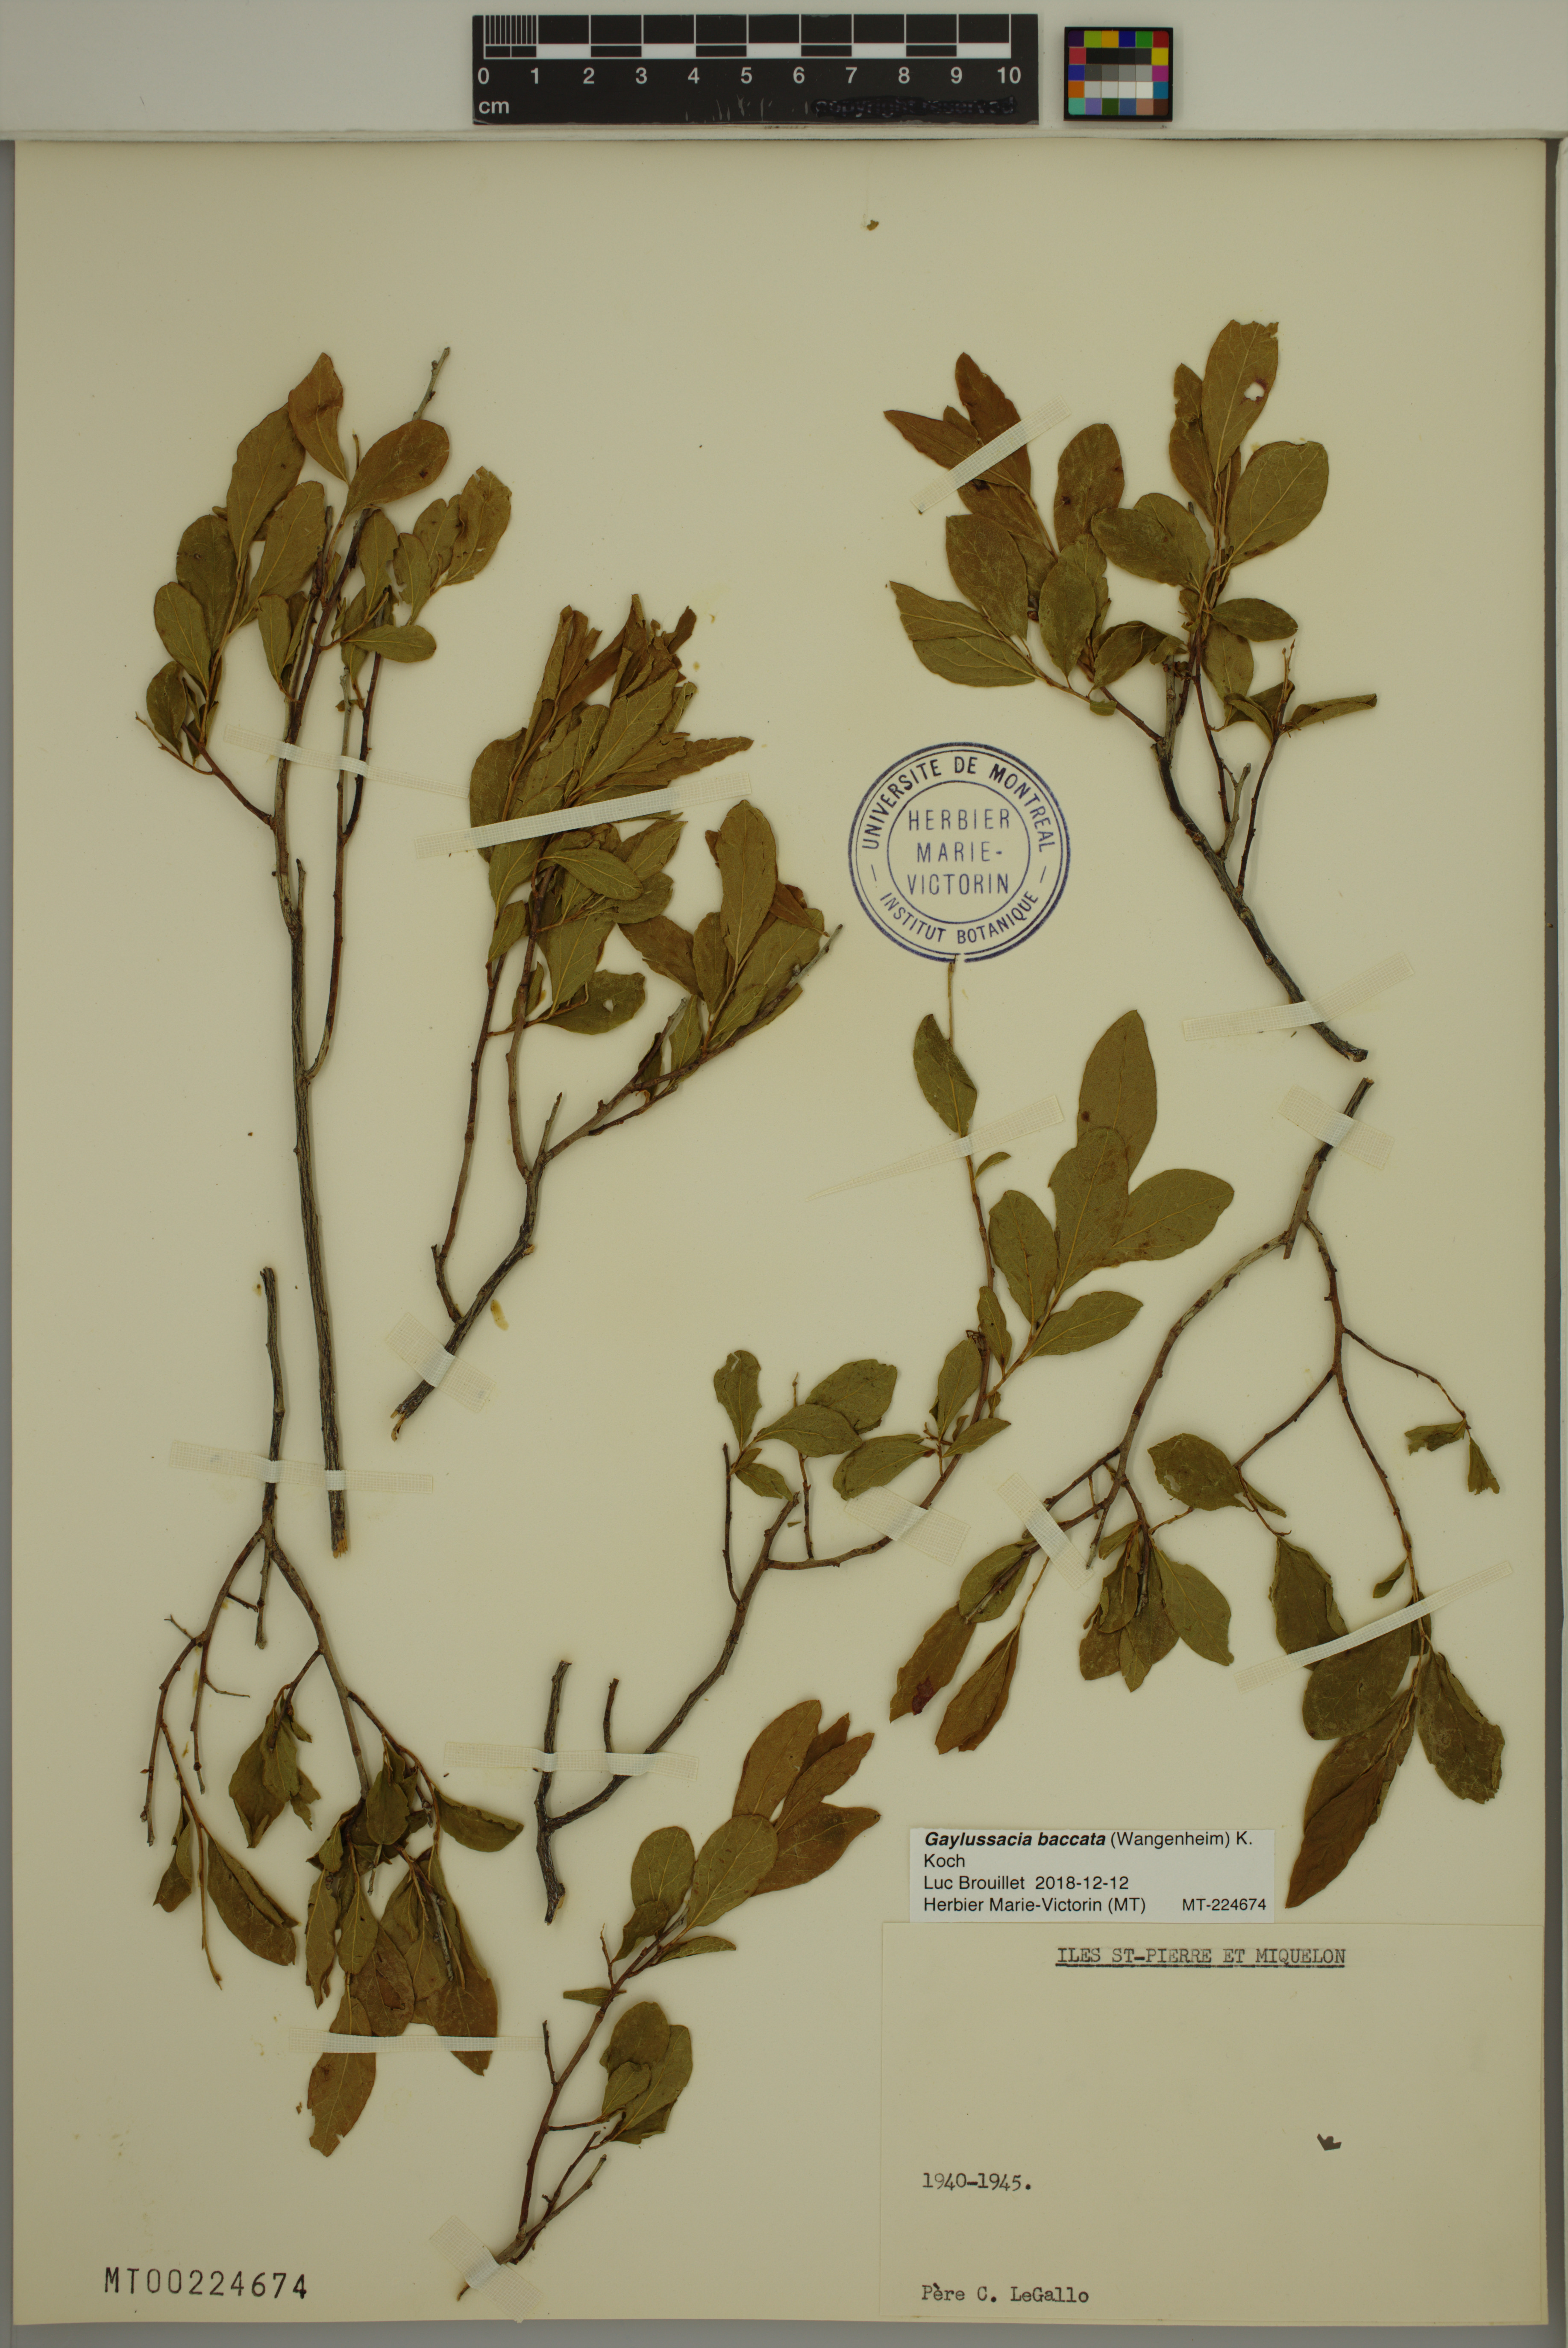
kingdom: Plantae
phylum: Tracheophyta
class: Magnoliopsida
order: Ericales
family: Ericaceae
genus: Gaylussacia
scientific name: Gaylussacia baccata
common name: Black huckleberry
